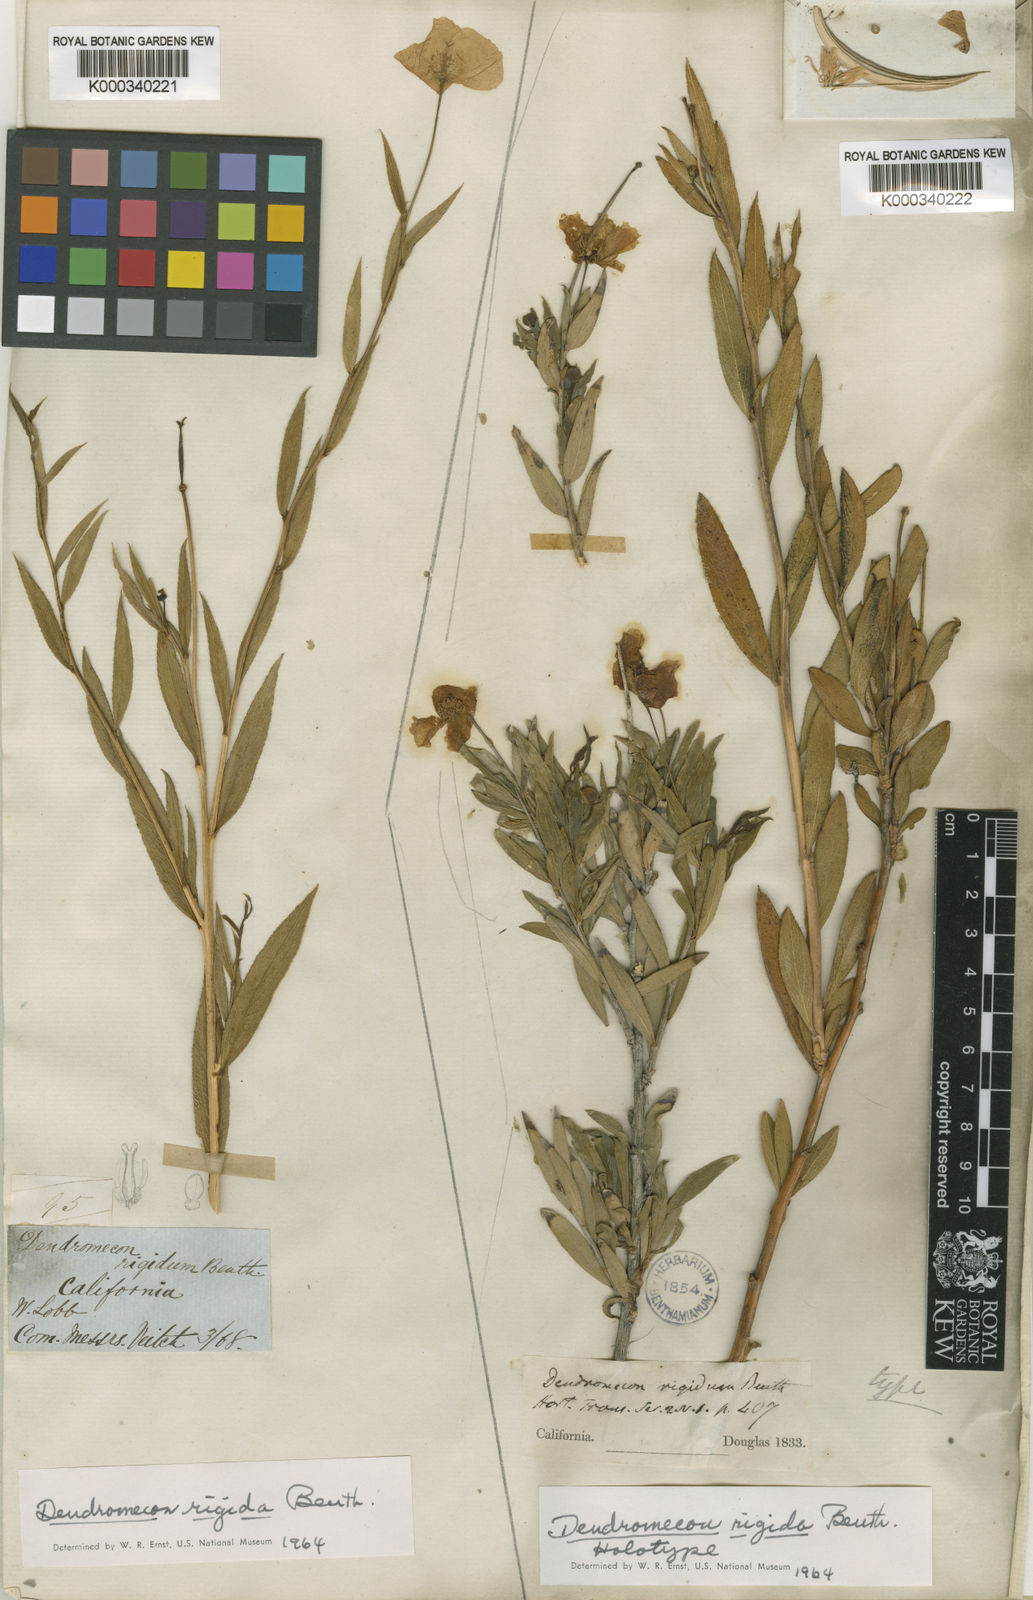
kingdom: Plantae
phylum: Tracheophyta
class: Magnoliopsida
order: Ranunculales
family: Papaveraceae
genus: Dendromecon
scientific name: Dendromecon rigida
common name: Tree poppy
